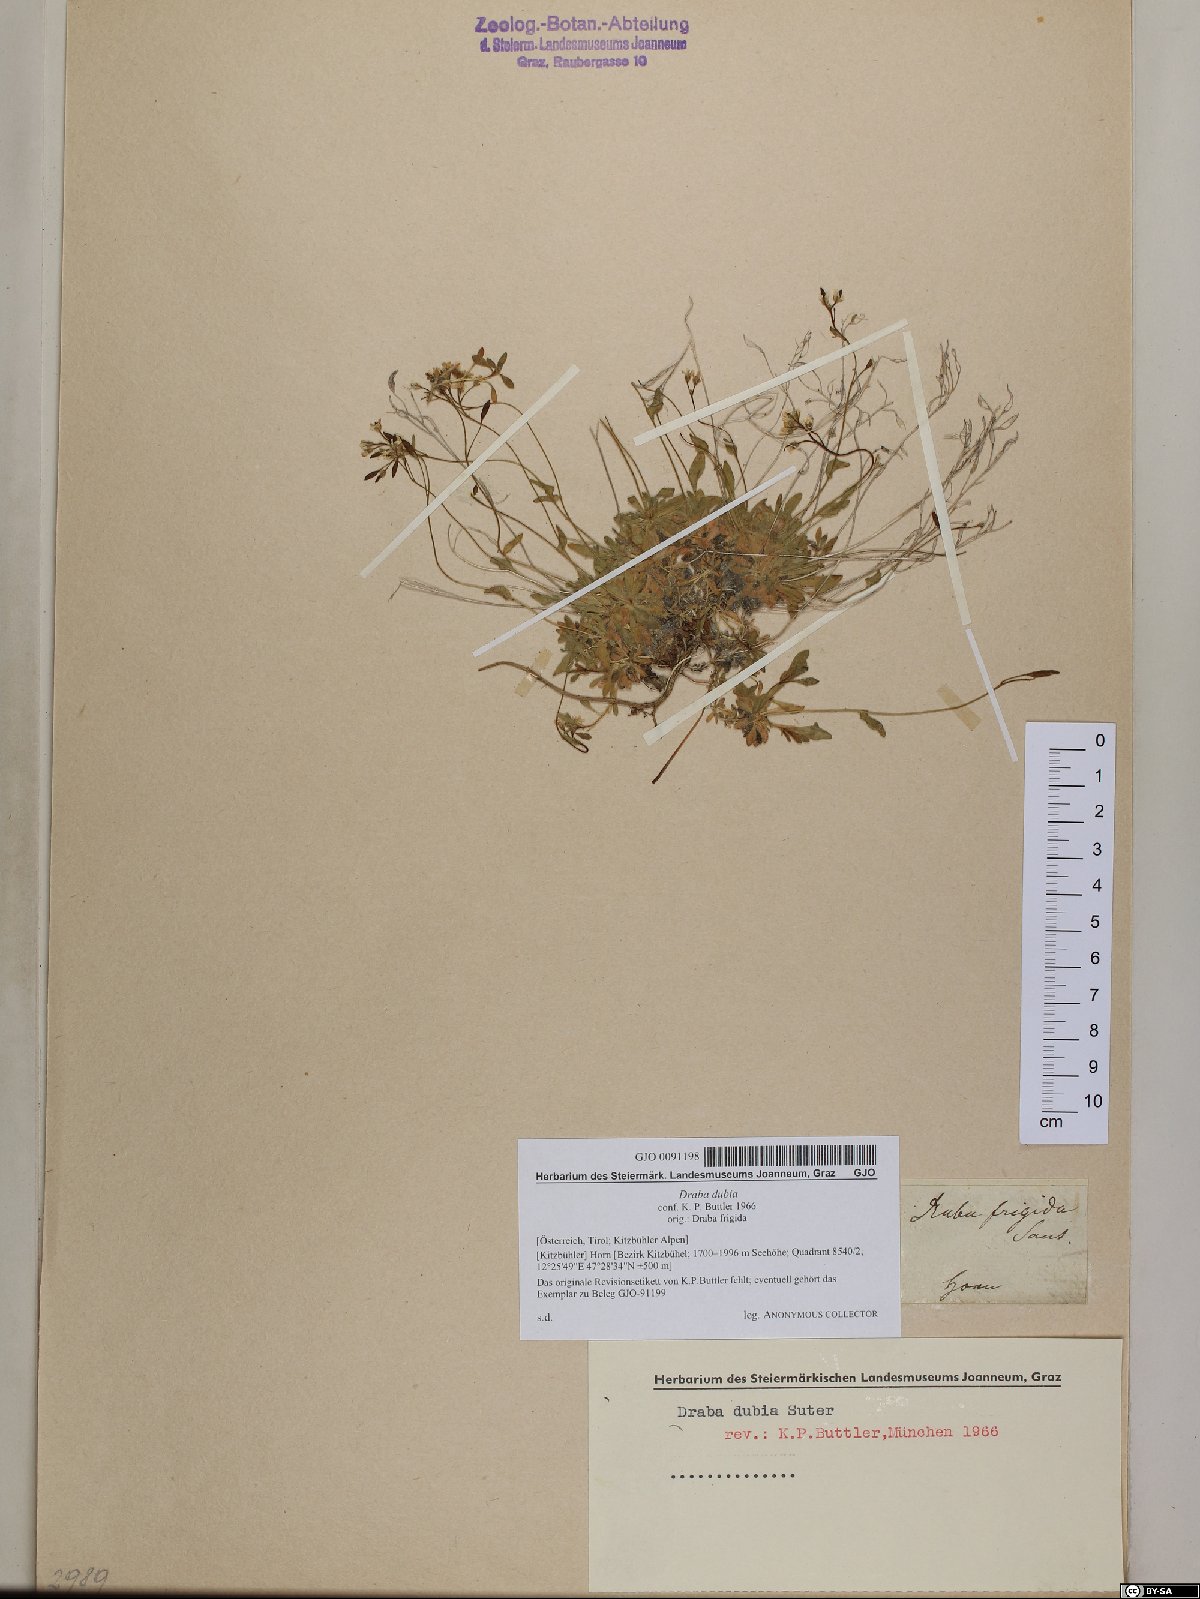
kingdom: Plantae
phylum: Tracheophyta
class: Magnoliopsida
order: Brassicales
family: Brassicaceae
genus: Draba
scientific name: Draba dubia
